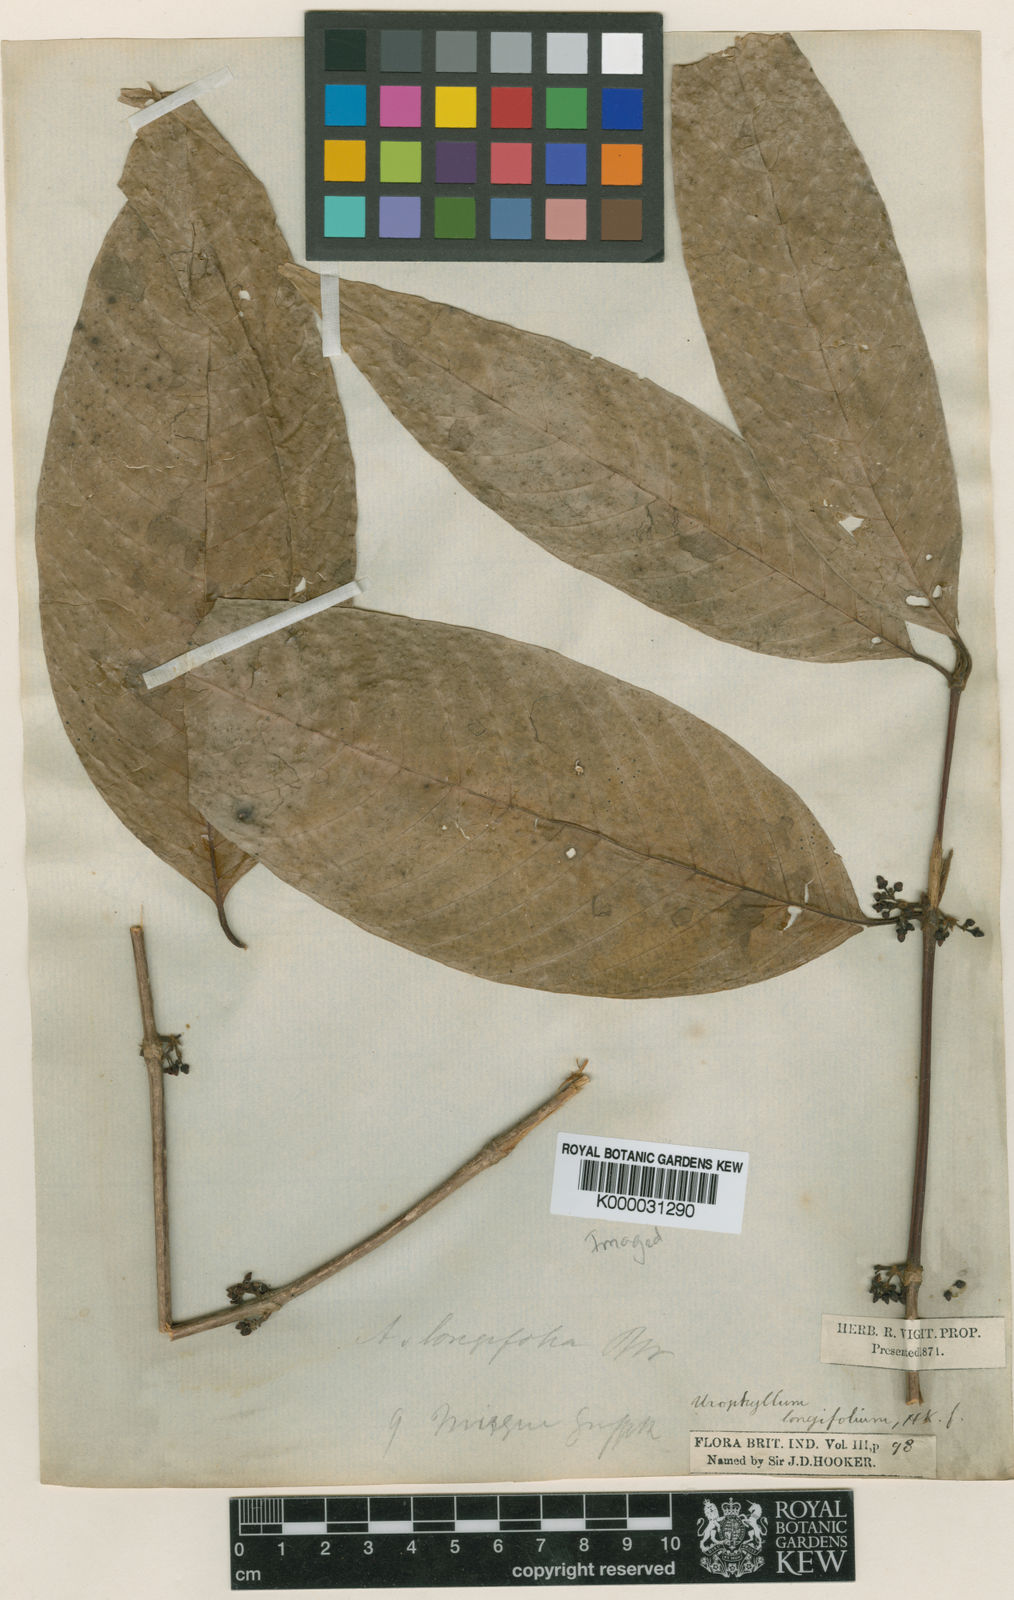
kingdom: Plantae
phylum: Tracheophyta
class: Magnoliopsida
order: Gentianales
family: Rubiaceae
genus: Urophyllum
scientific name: Urophyllum longifolium
